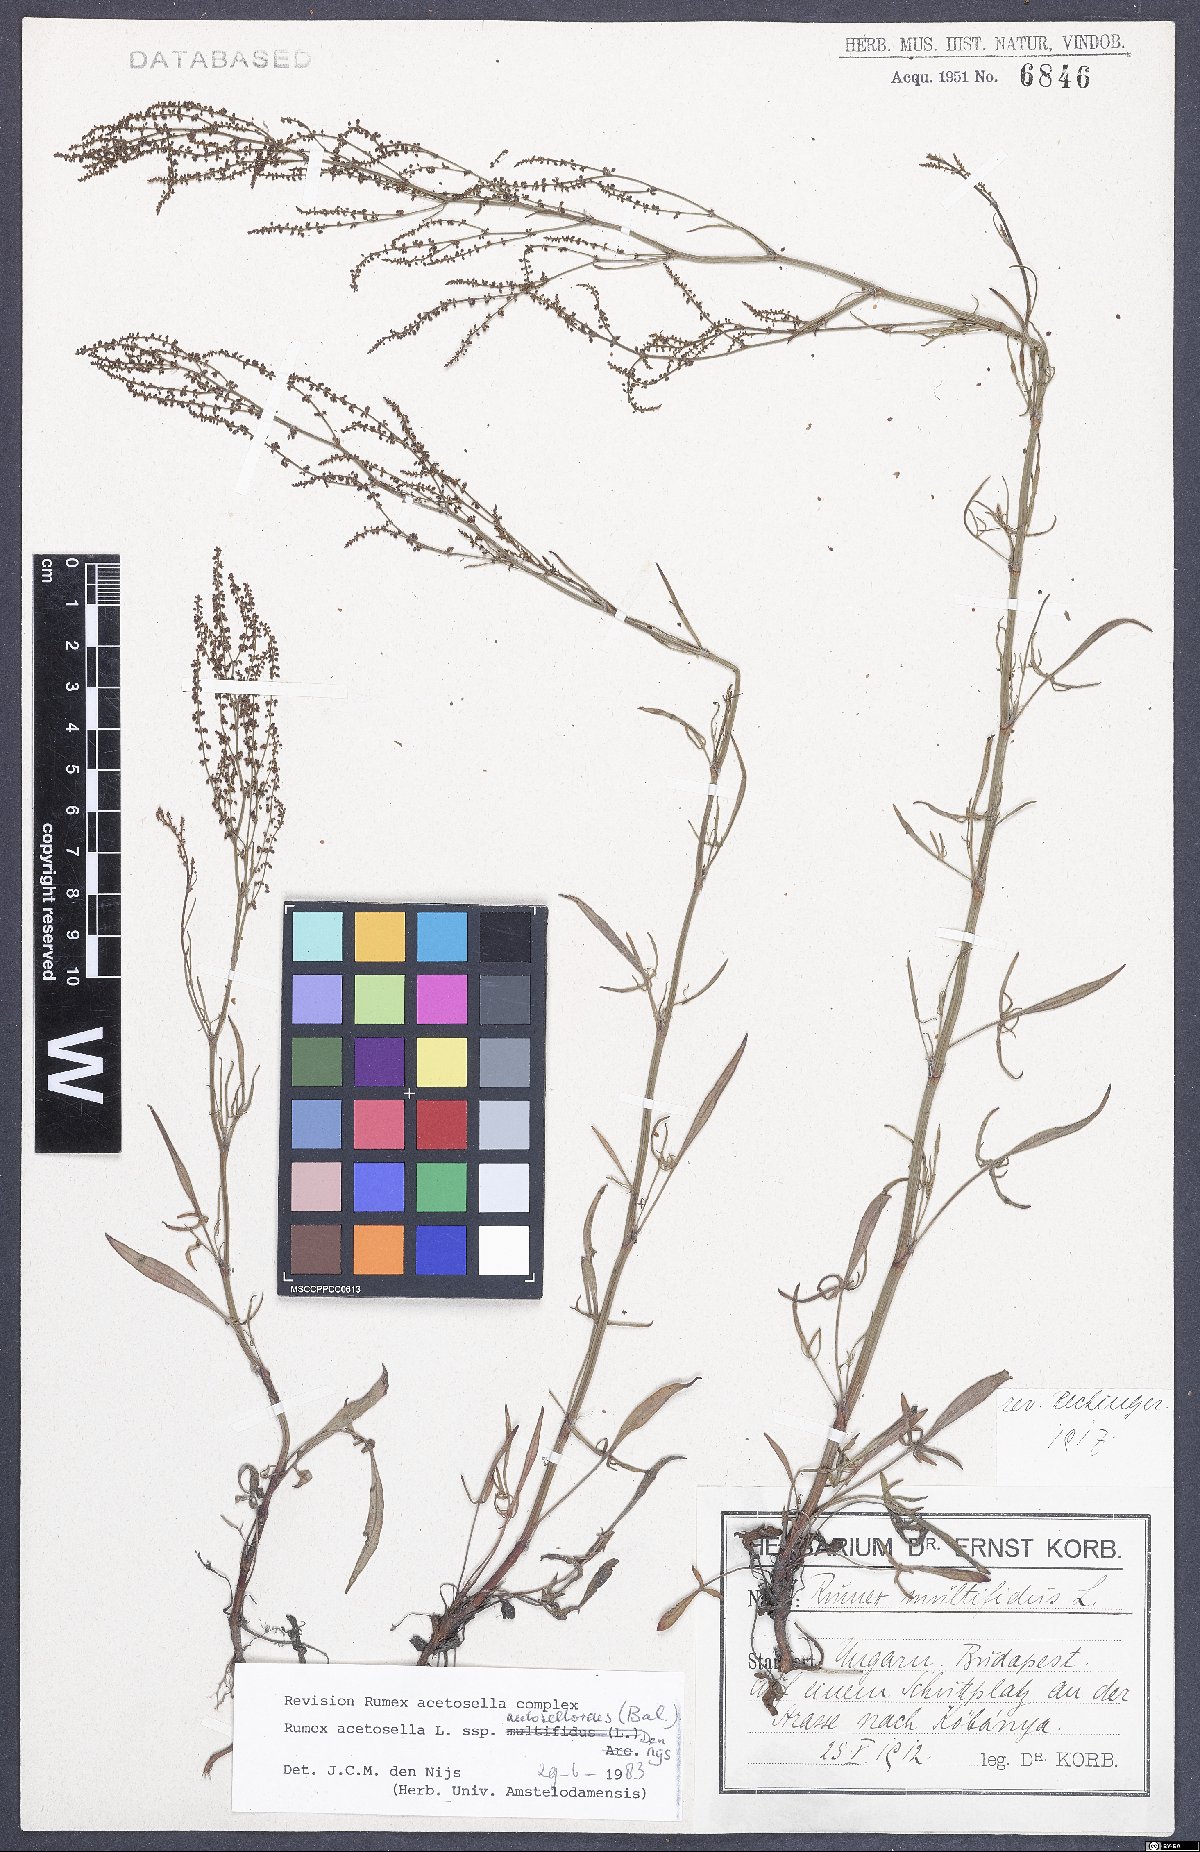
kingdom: Plantae
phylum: Tracheophyta
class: Magnoliopsida
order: Caryophyllales
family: Polygonaceae
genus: Rumex
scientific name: Rumex acetosella
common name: Common sheep sorrel
